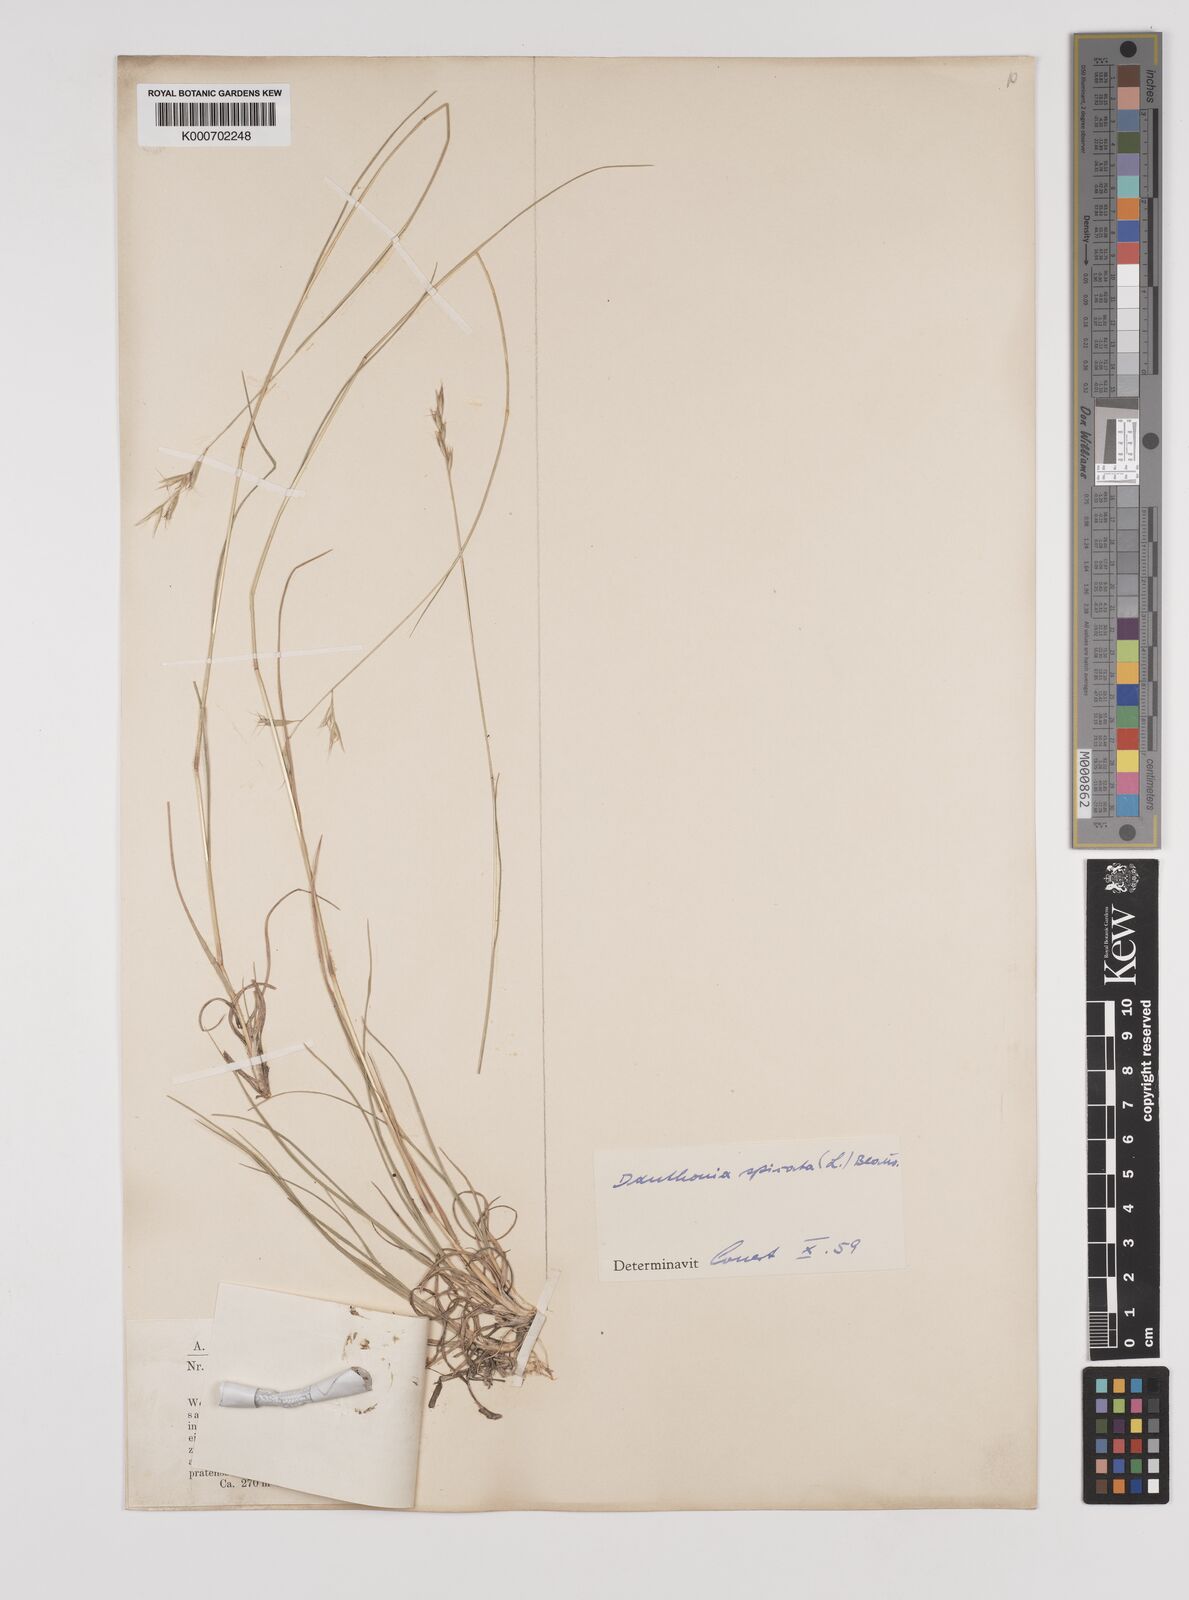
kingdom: Plantae
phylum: Tracheophyta
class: Liliopsida
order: Poales
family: Poaceae
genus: Danthonia
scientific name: Danthonia spicata
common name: Common wild oatgrass
